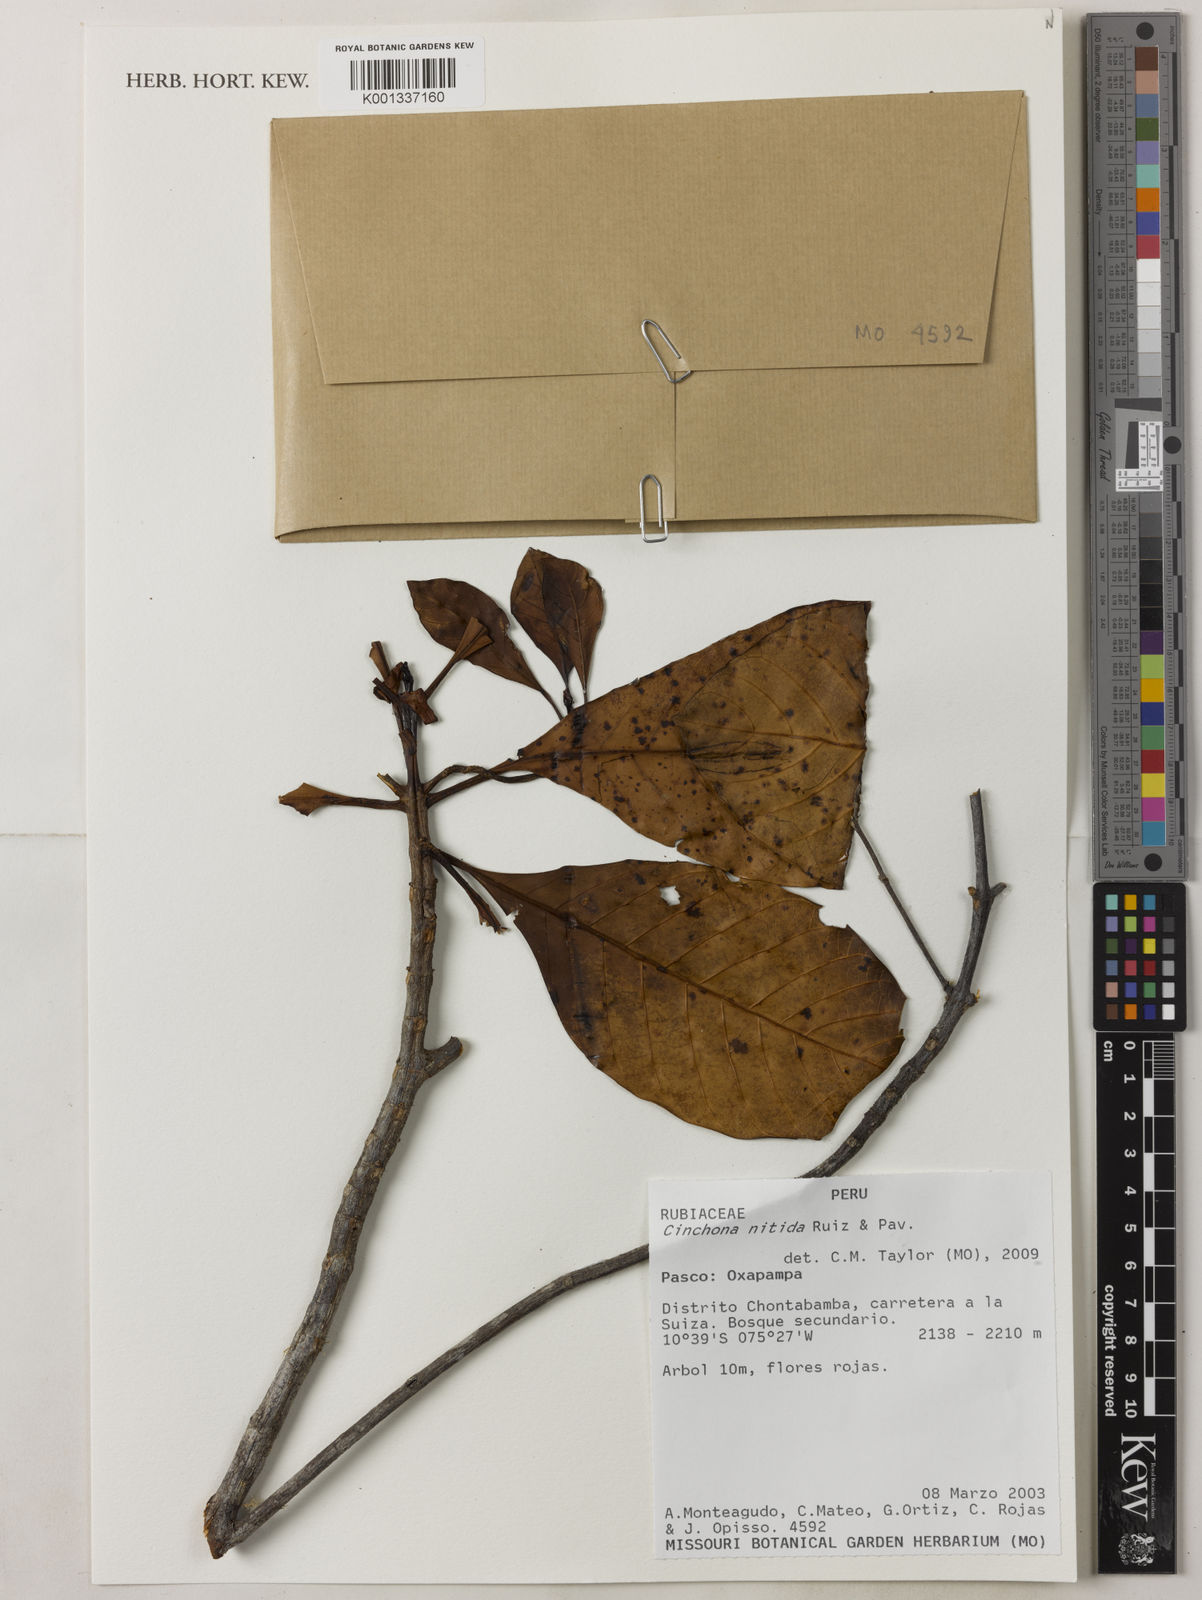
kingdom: Plantae
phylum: Tracheophyta
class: Magnoliopsida
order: Gentianales
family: Rubiaceae
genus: Cinchona
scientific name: Cinchona nitida
